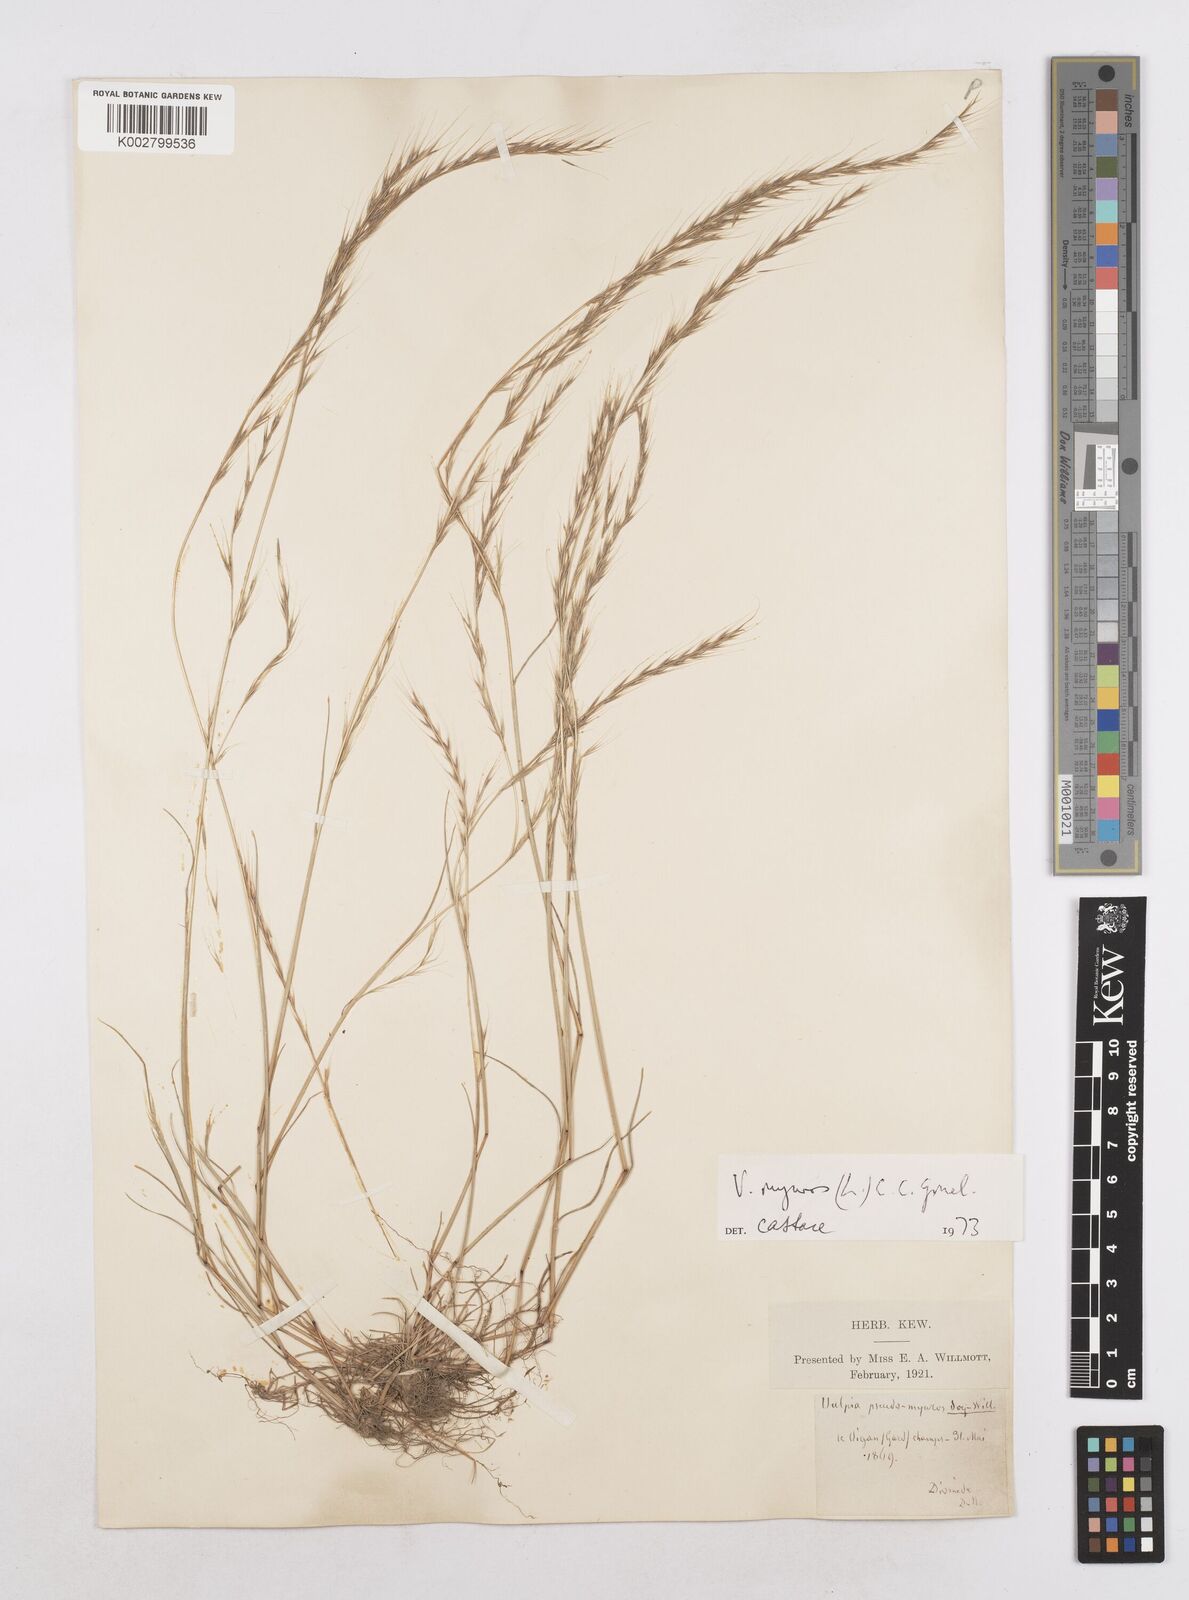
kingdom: Plantae
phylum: Tracheophyta
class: Liliopsida
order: Poales
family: Poaceae
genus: Festuca
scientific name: Festuca myuros
